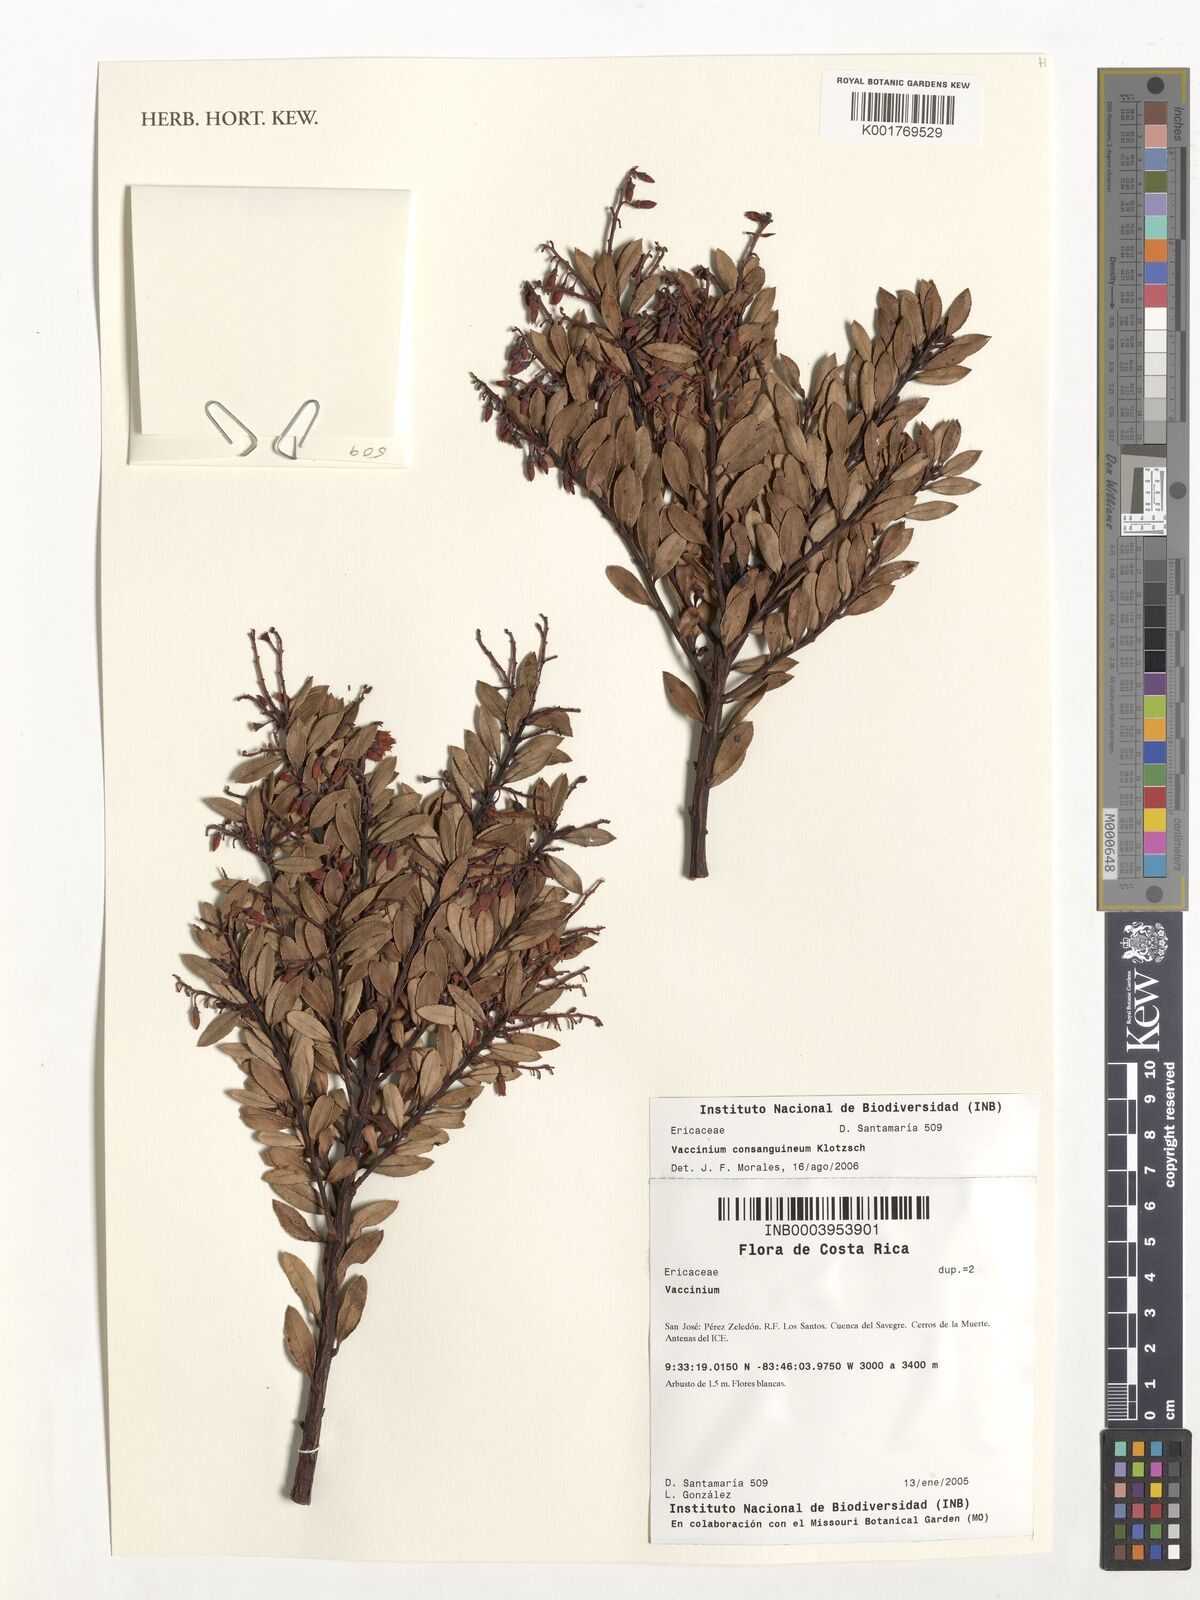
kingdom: Plantae
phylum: Tracheophyta
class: Magnoliopsida
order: Ericales
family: Ericaceae
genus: Vaccinium
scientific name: Vaccinium consanguineum
